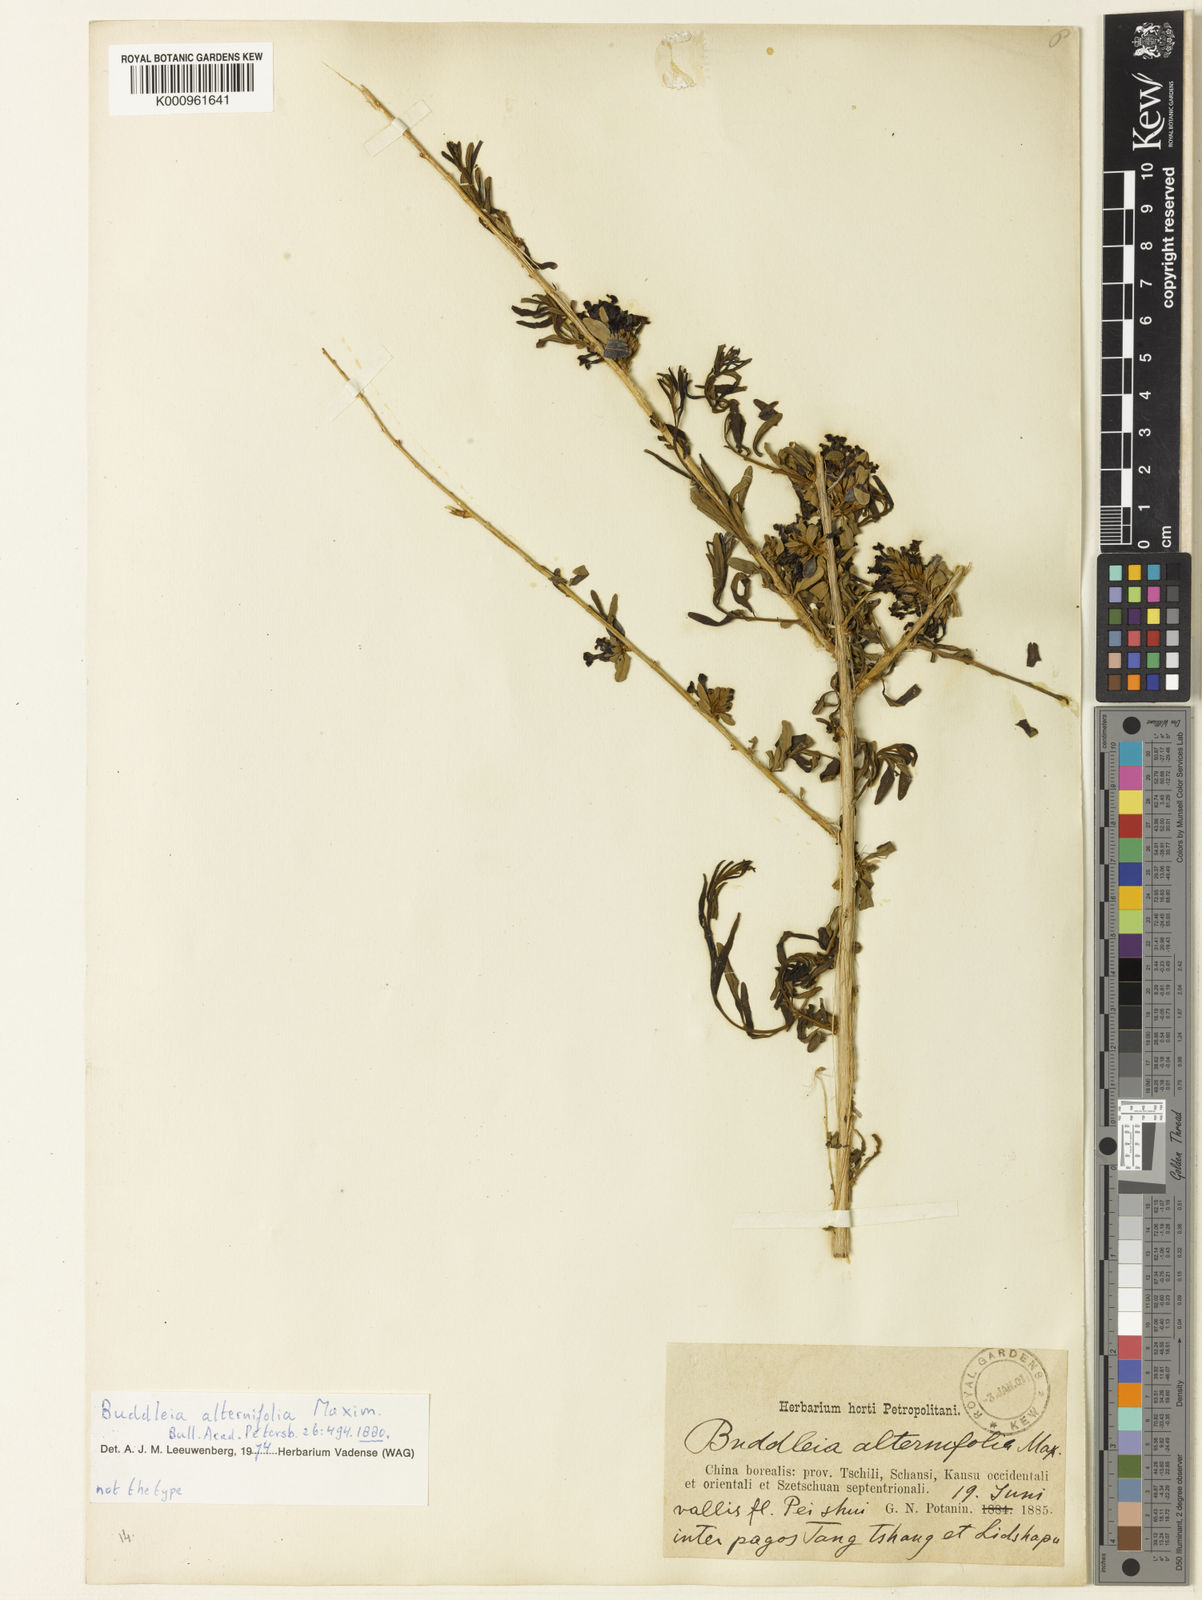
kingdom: Plantae
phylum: Tracheophyta
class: Magnoliopsida
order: Lamiales
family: Scrophulariaceae
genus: Buddleja
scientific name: Buddleja alternifolia
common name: Alternate-leaved butterfly-bush
